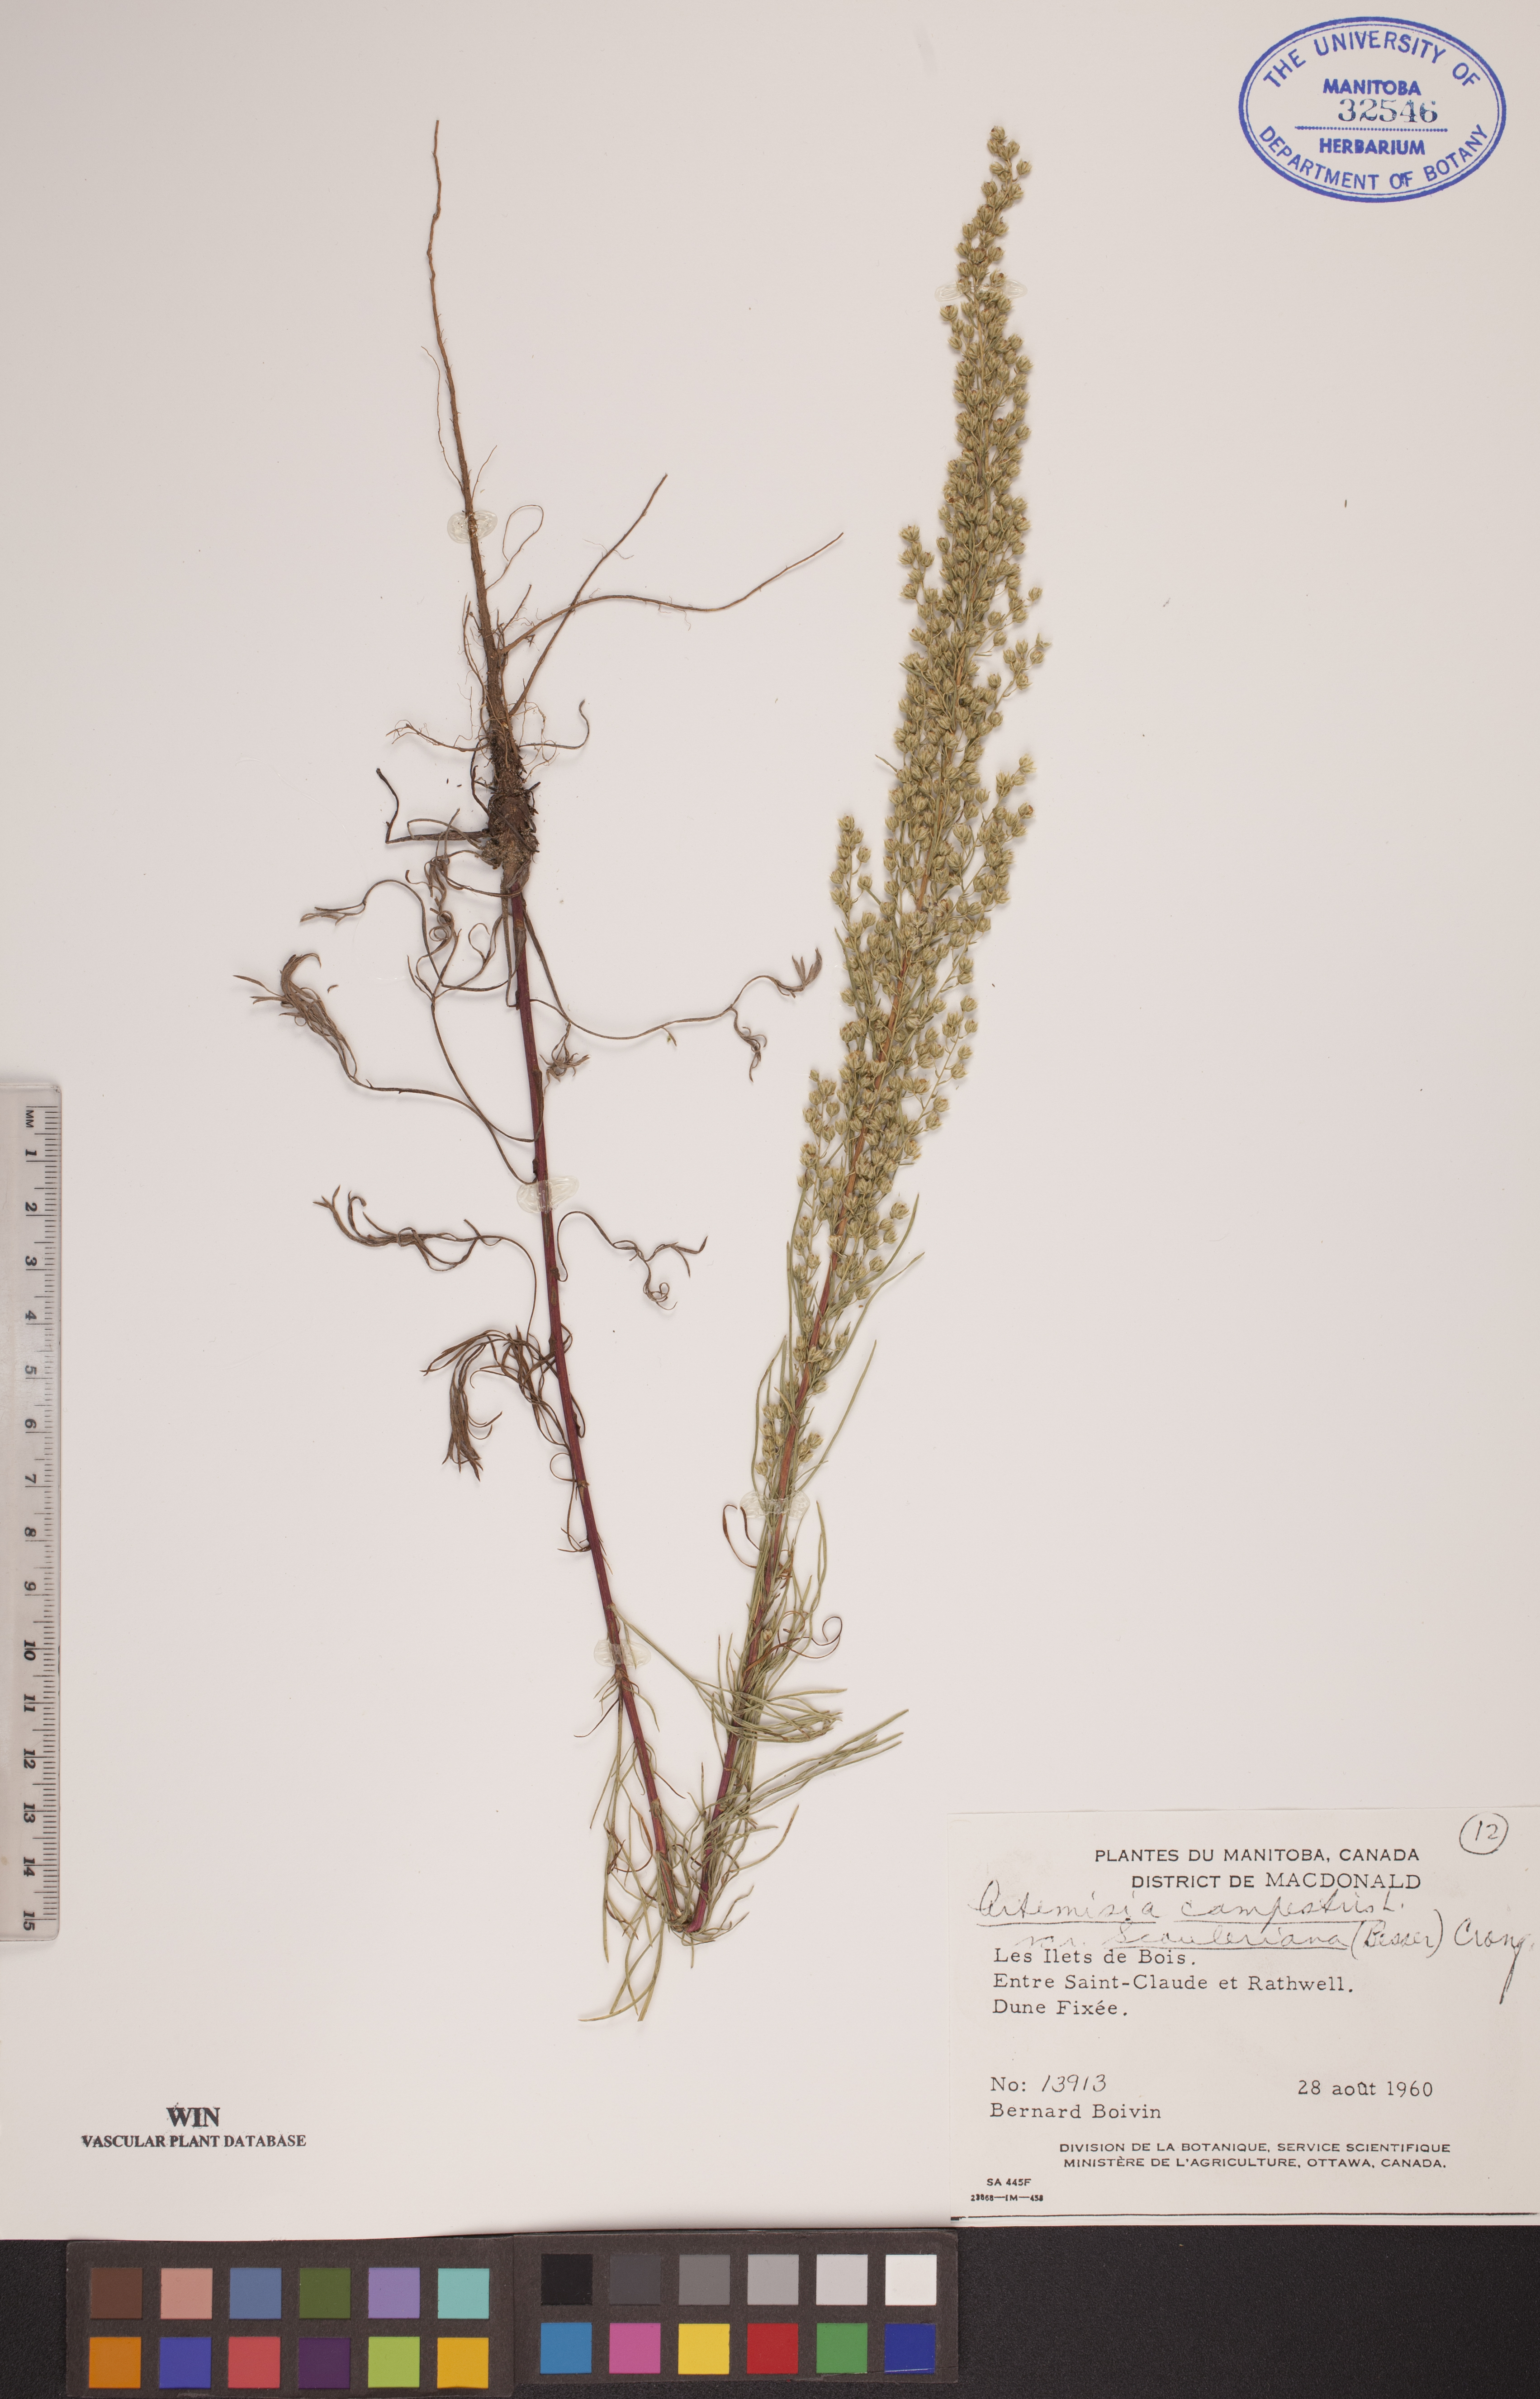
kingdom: Plantae
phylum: Tracheophyta
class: Magnoliopsida
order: Asterales
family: Asteraceae
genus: Artemisia
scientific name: Artemisia campestris
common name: Field wormwood
